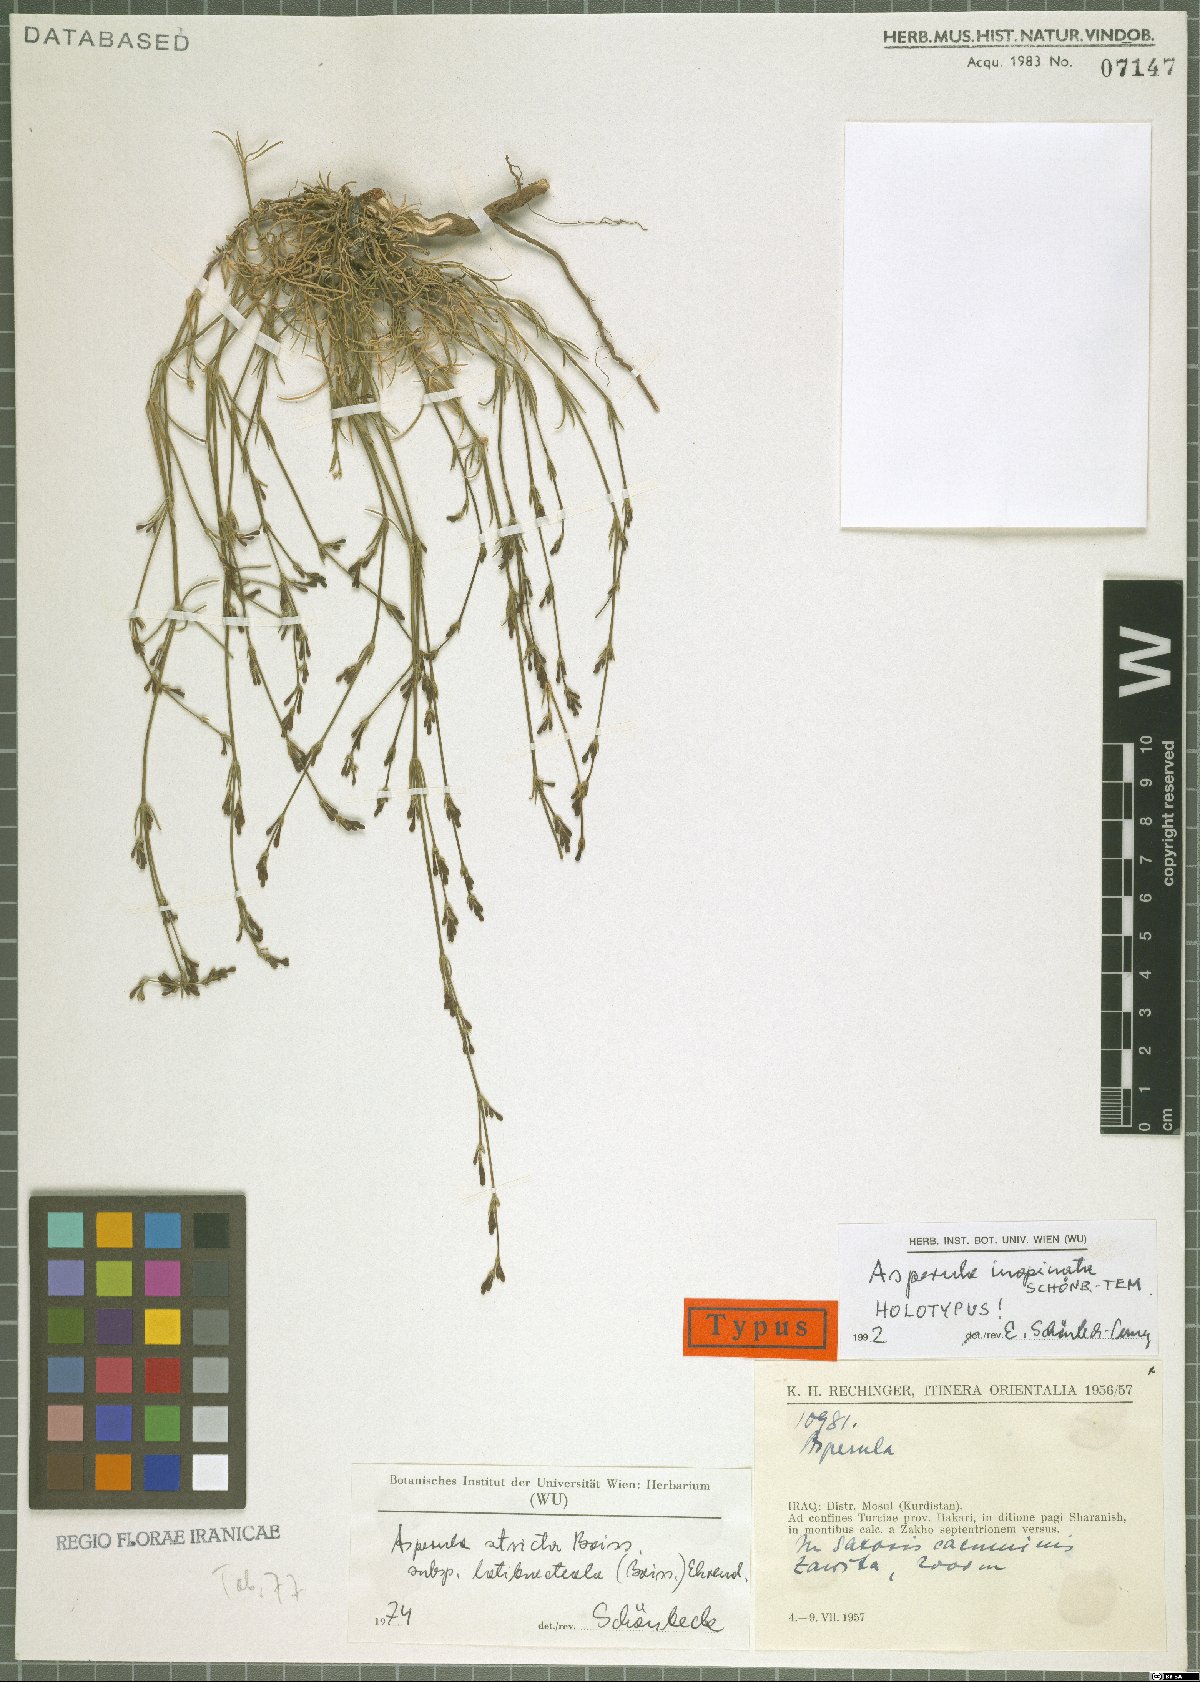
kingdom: Plantae
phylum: Tracheophyta
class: Magnoliopsida
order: Gentianales
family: Rubiaceae
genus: Cynanchica
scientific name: Cynanchica inopinata
